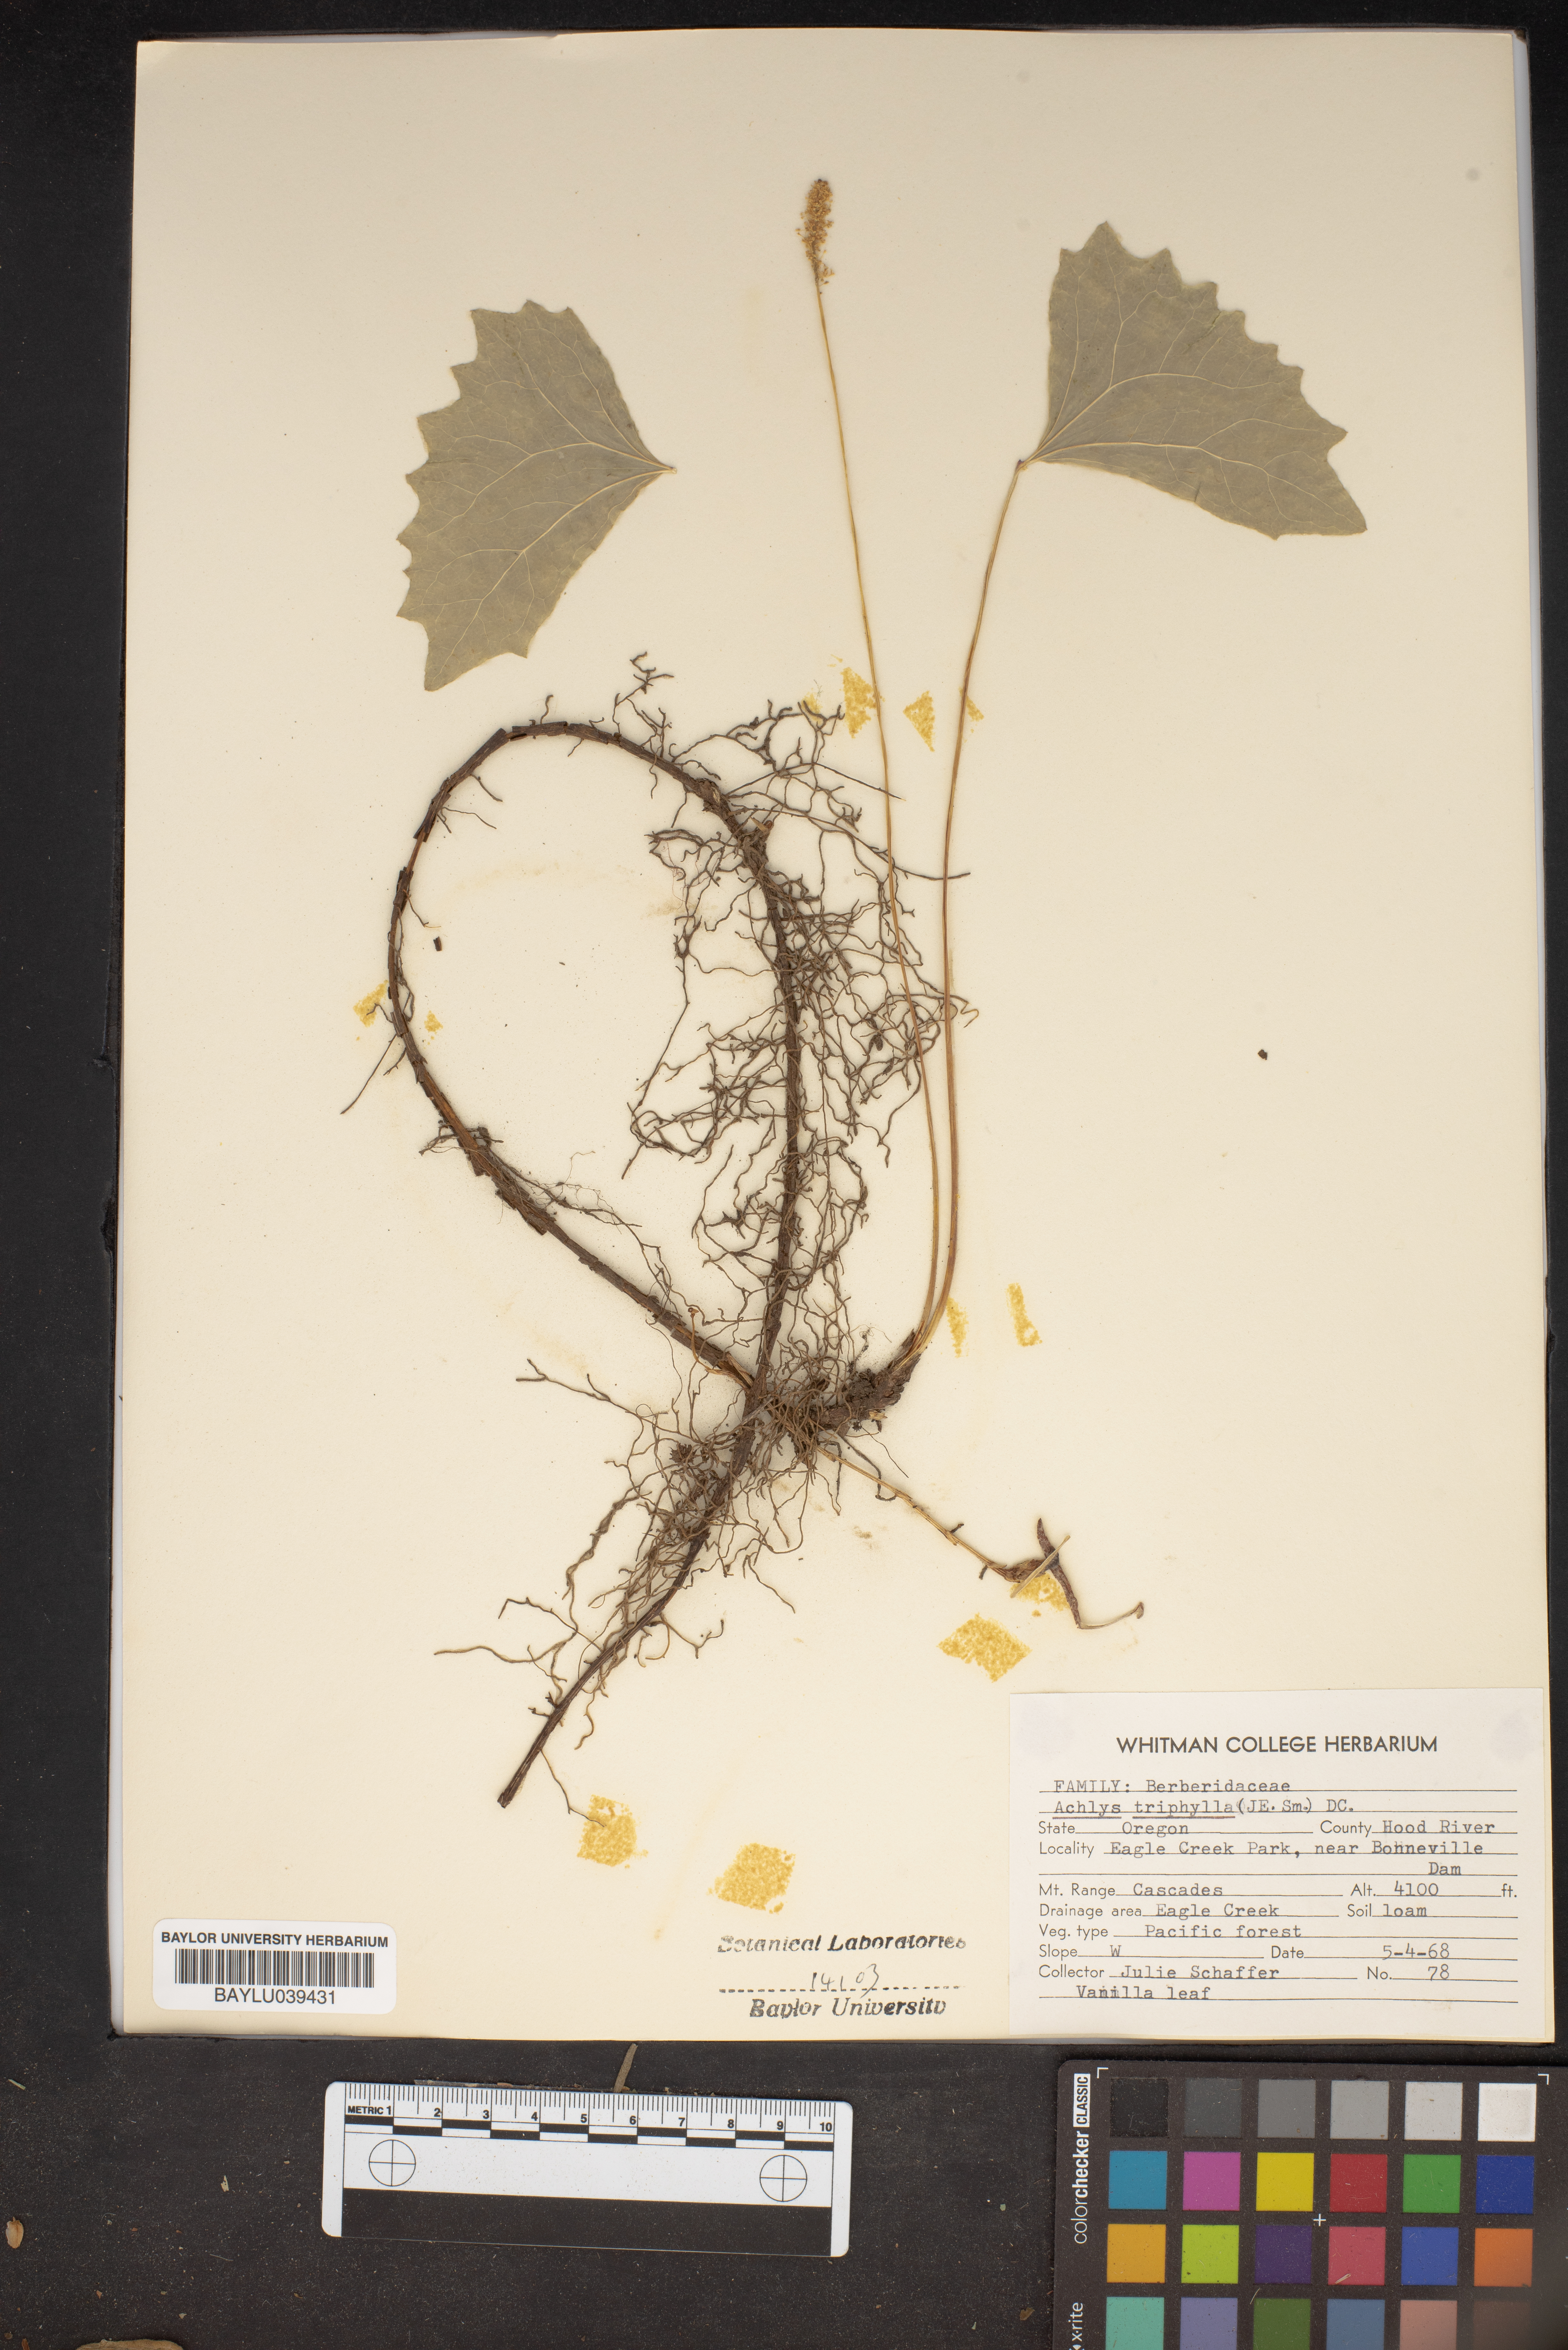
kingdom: Plantae
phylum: Tracheophyta
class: Magnoliopsida
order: Ranunculales
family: Berberidaceae
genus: Achlys
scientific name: Achlys triphylla
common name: Vanilla-leaf
